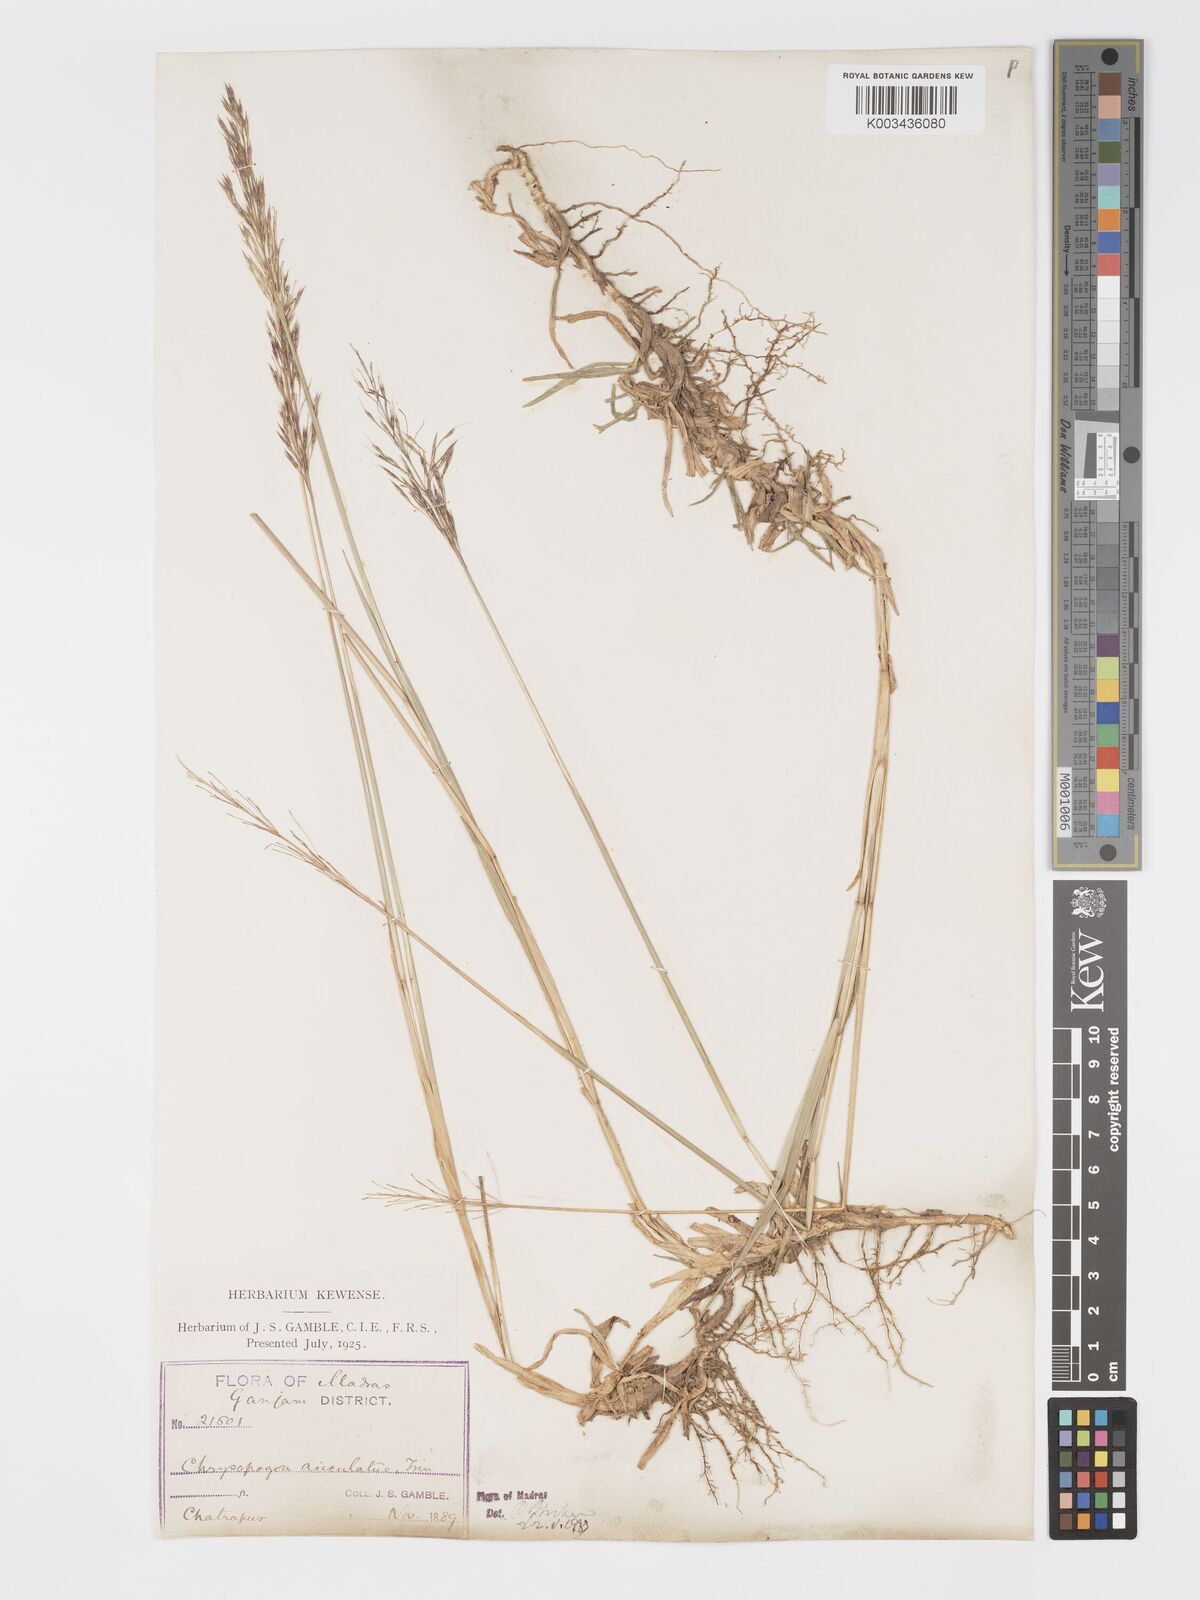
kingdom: Plantae
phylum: Tracheophyta
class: Liliopsida
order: Poales
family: Poaceae
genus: Chrysopogon
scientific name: Chrysopogon aciculatus
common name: Pilipiliula
